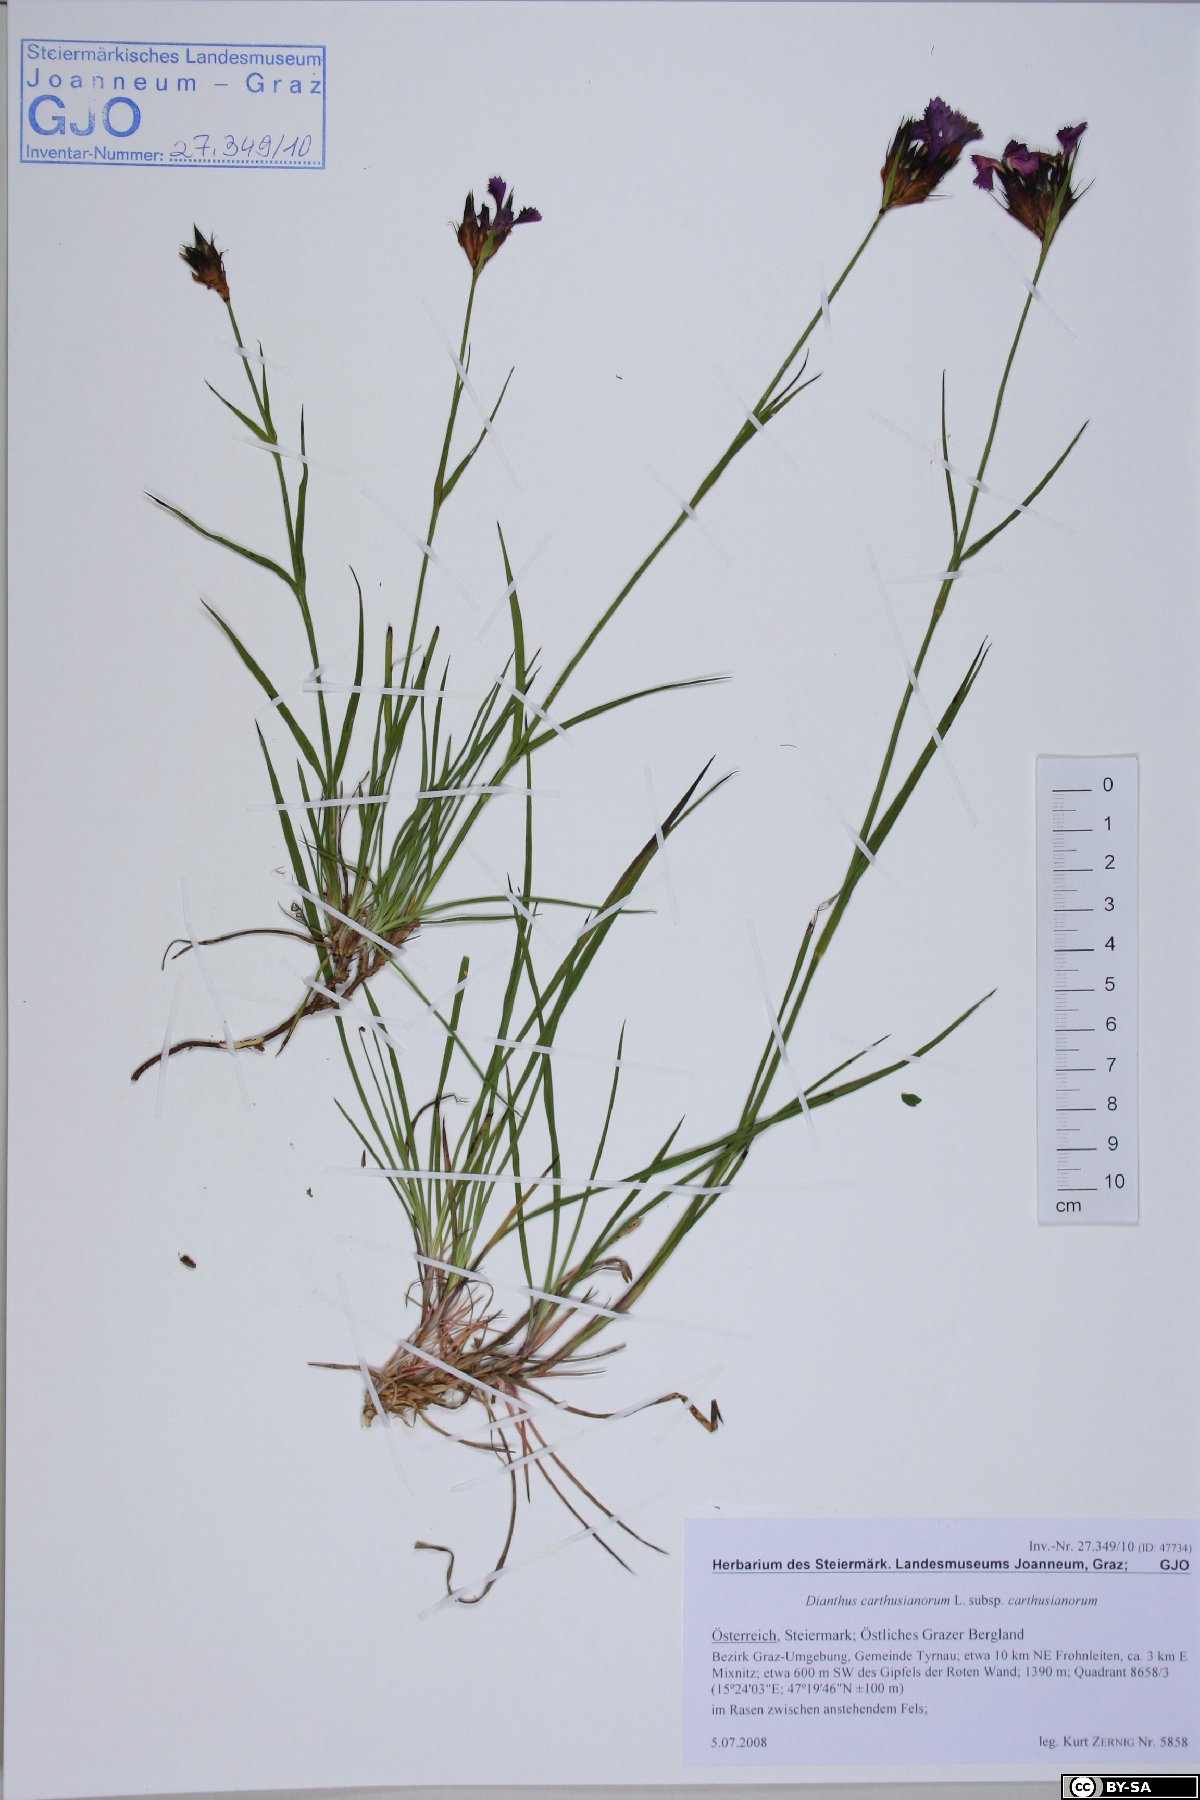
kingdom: Plantae
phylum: Tracheophyta
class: Magnoliopsida
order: Caryophyllales
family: Caryophyllaceae
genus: Dianthus
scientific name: Dianthus carthusianorum
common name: Carthusian pink
